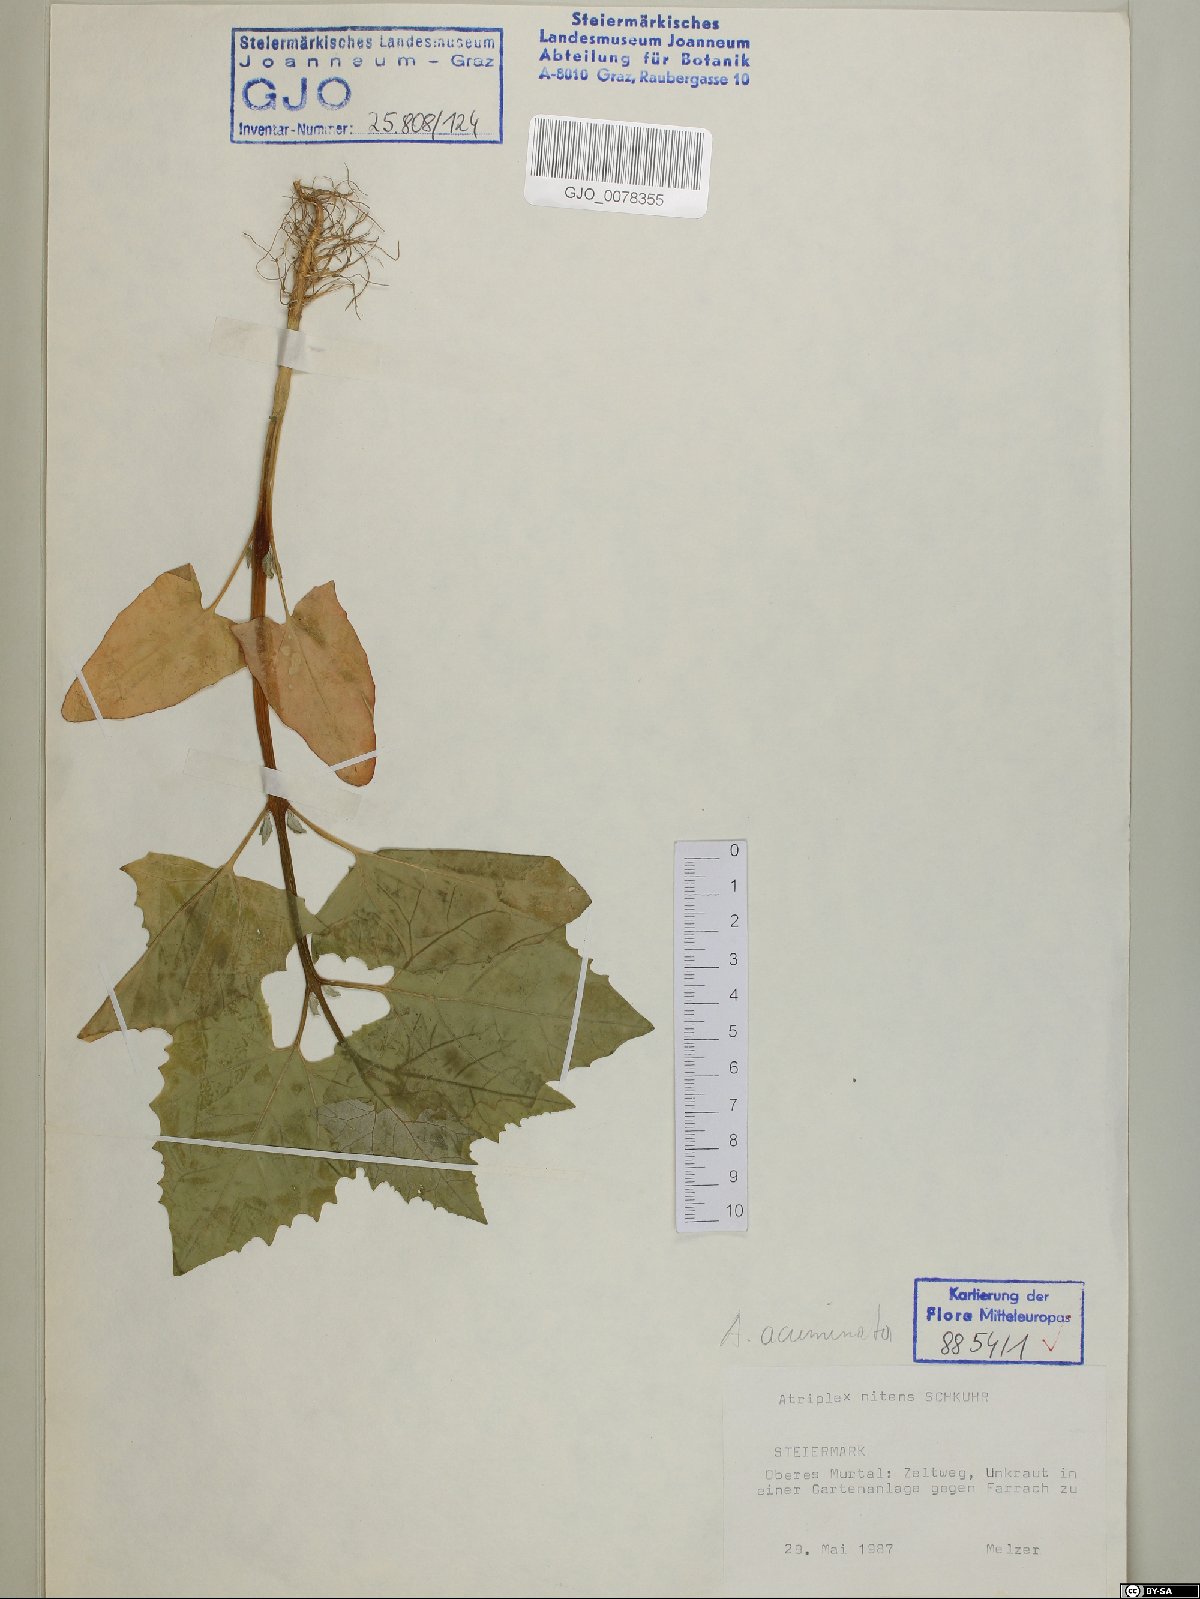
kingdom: Plantae
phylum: Tracheophyta
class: Magnoliopsida
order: Caryophyllales
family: Amaranthaceae
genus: Atriplex
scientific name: Atriplex sagittata
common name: Purple orache
